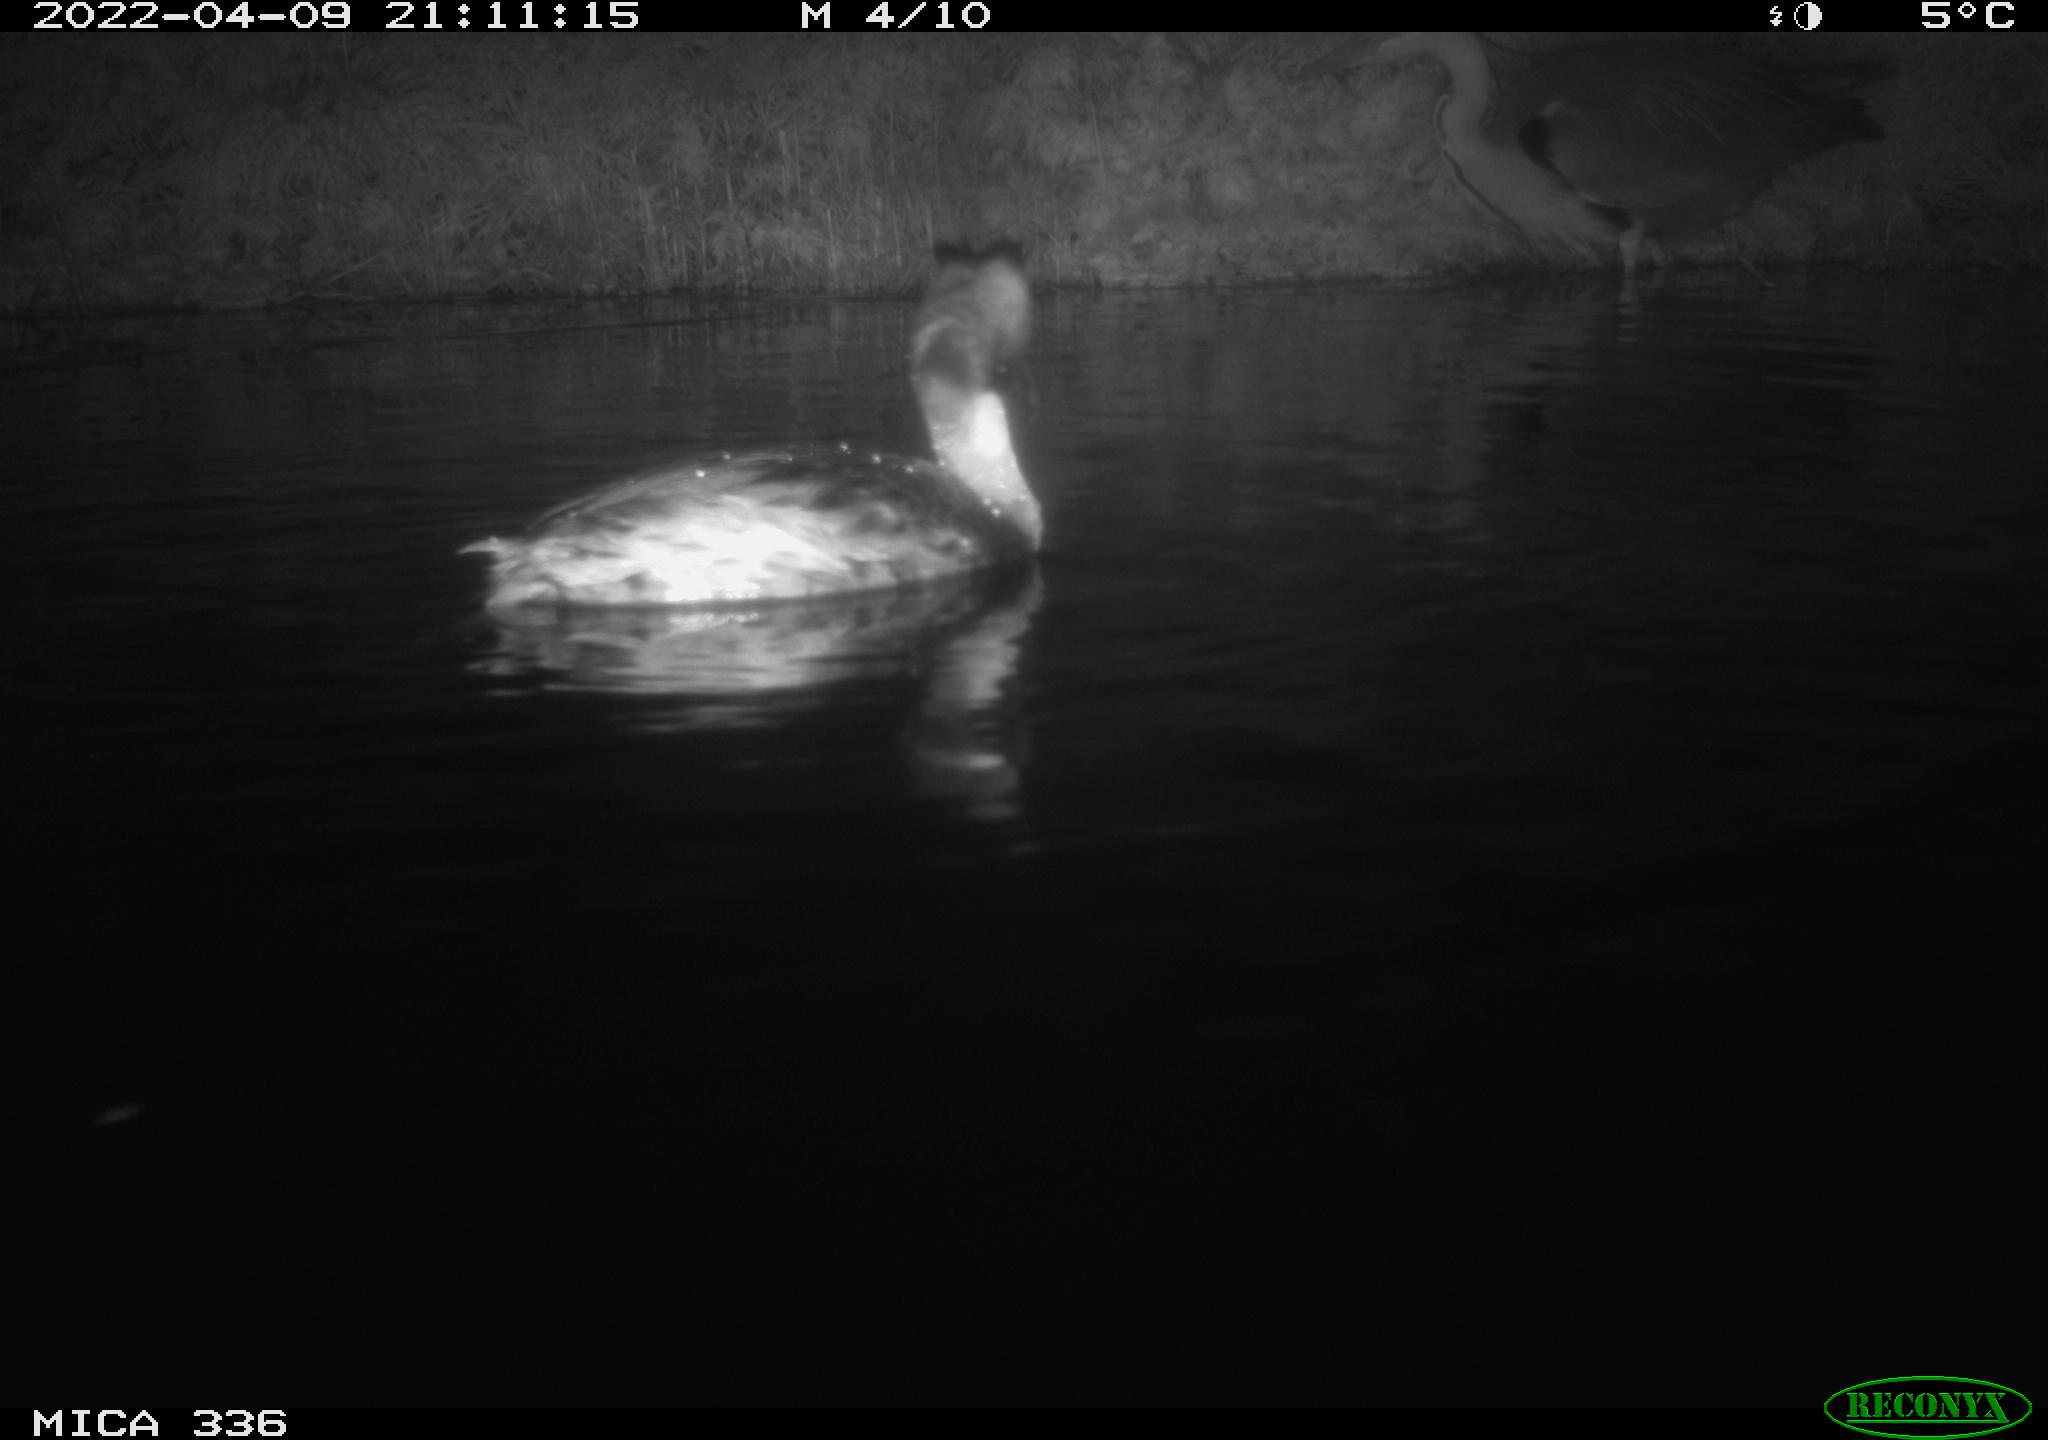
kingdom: Animalia
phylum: Chordata
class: Aves
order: Podicipediformes
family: Podicipedidae
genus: Podiceps
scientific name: Podiceps cristatus
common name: Great crested grebe
